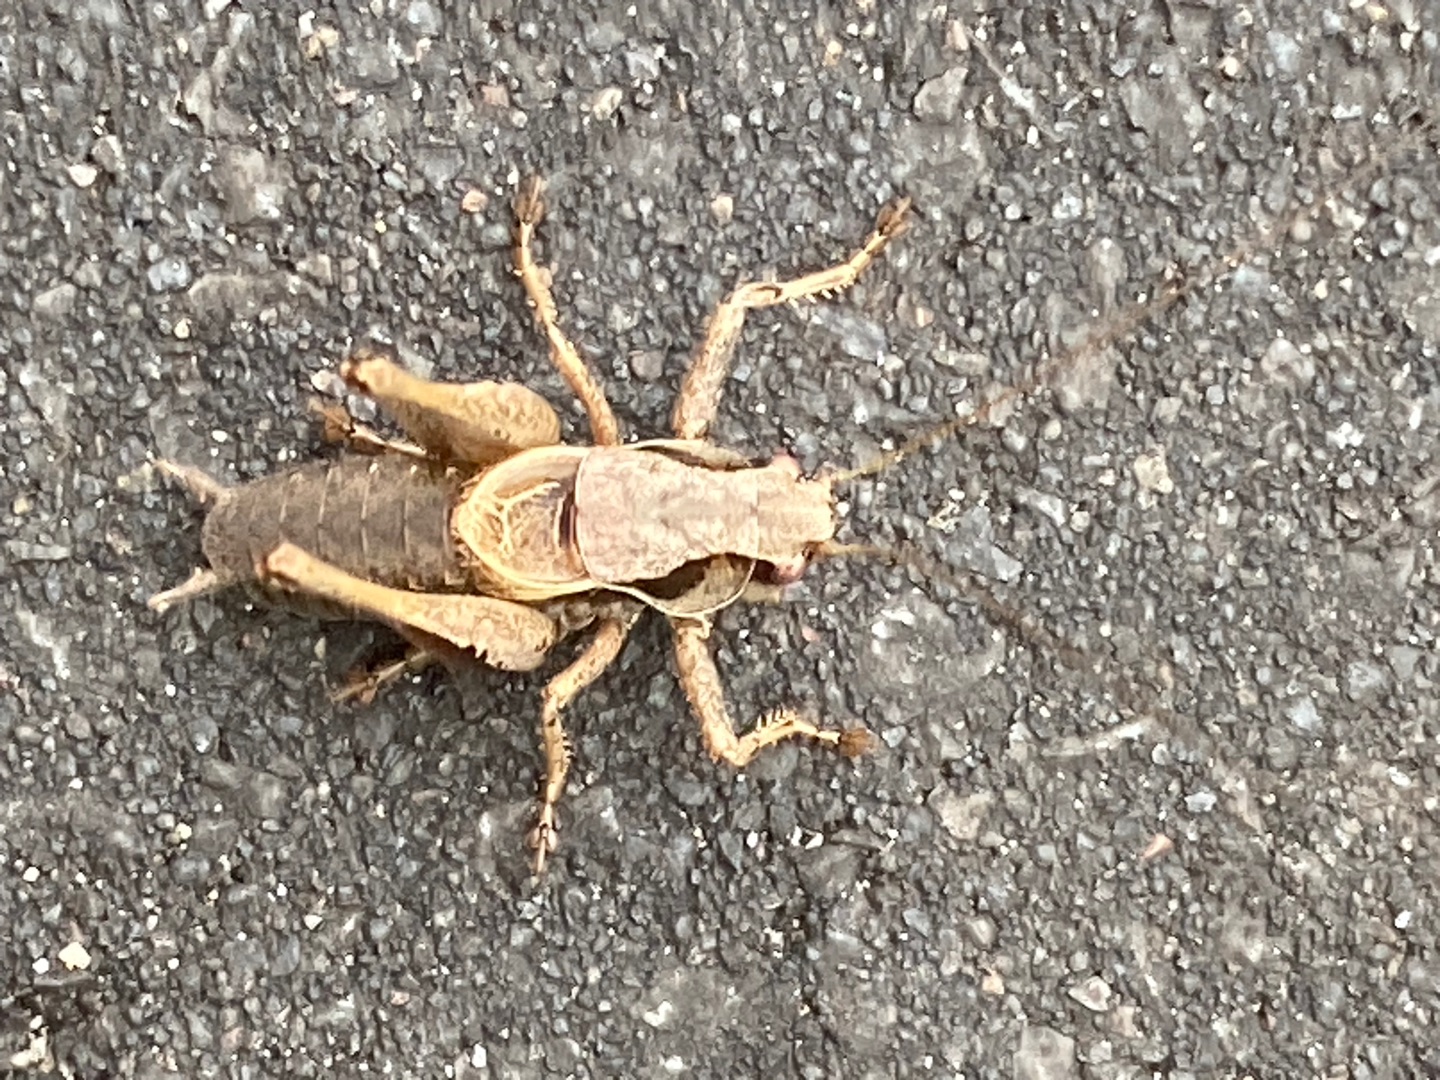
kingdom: Animalia
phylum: Arthropoda
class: Insecta
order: Orthoptera
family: Tettigoniidae
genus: Pholidoptera
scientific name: Pholidoptera griseoaptera
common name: Buskgræshoppe
